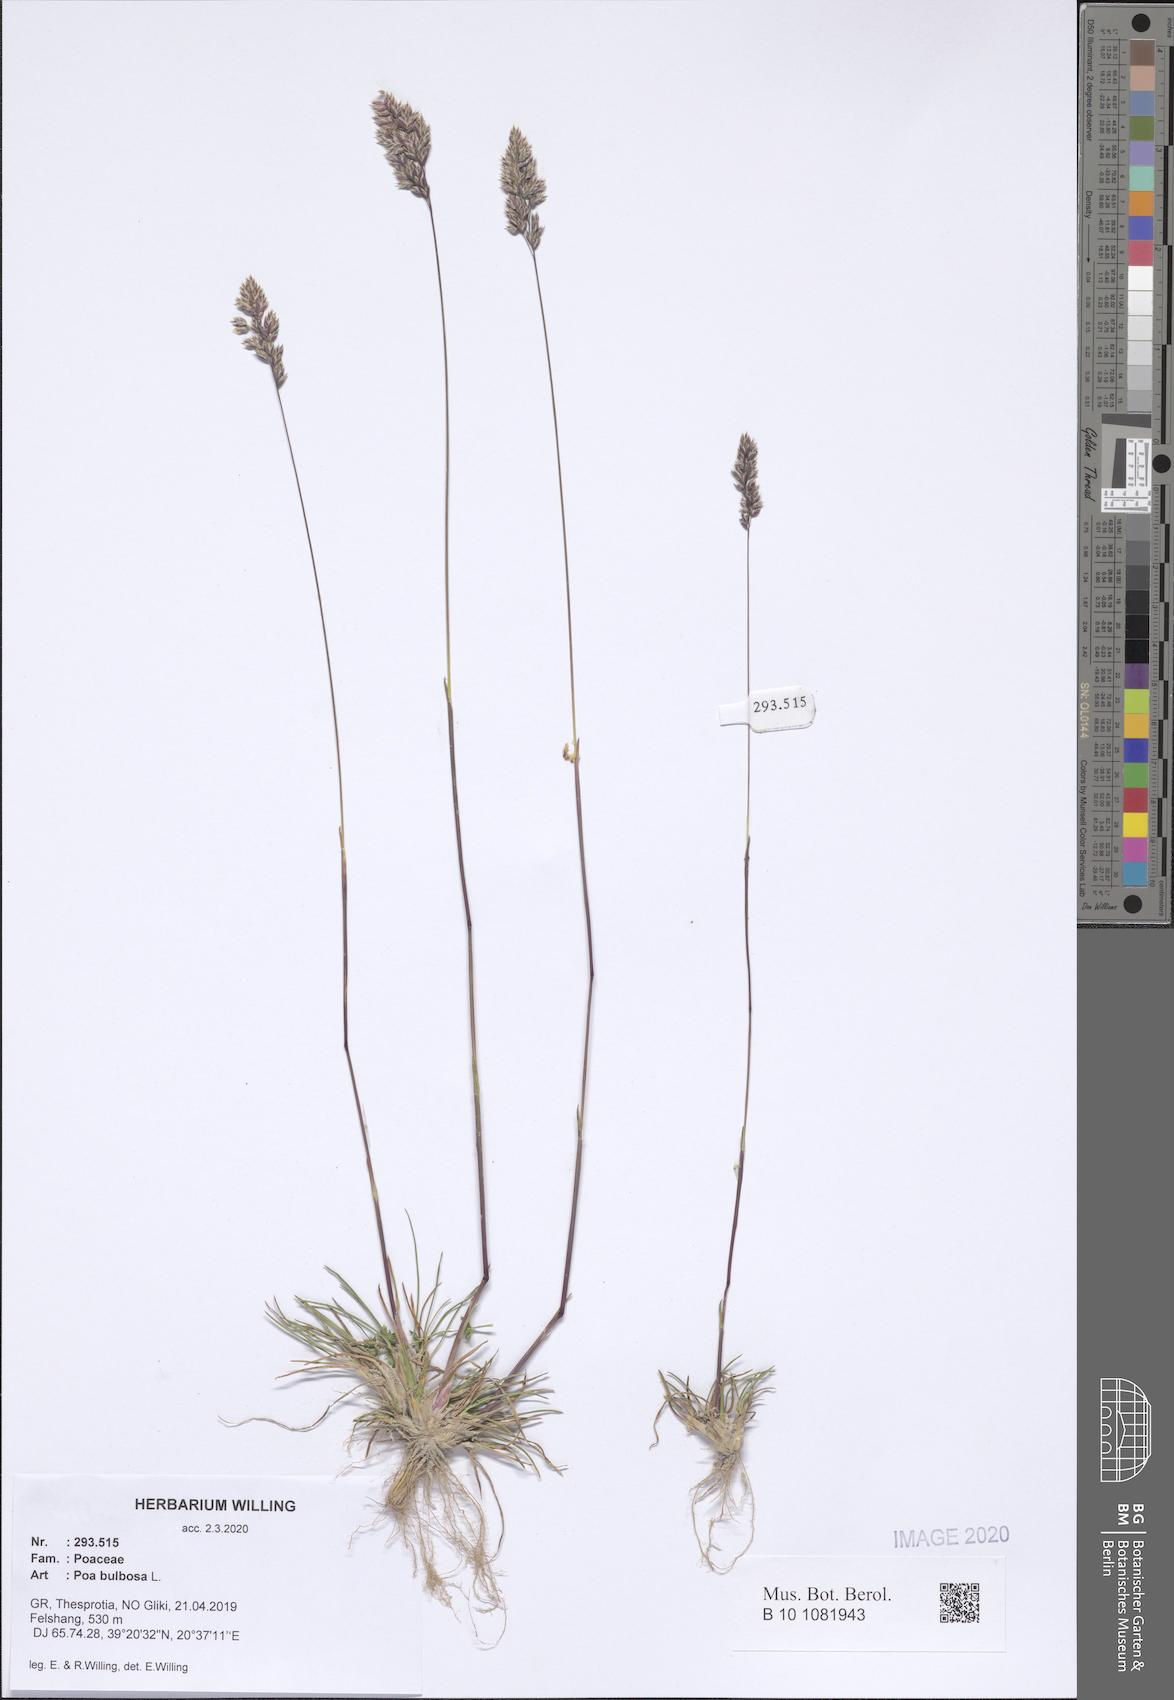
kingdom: Plantae
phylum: Tracheophyta
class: Liliopsida
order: Poales
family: Poaceae
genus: Poa
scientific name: Poa bulbosa
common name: Bulbous bluegrass
